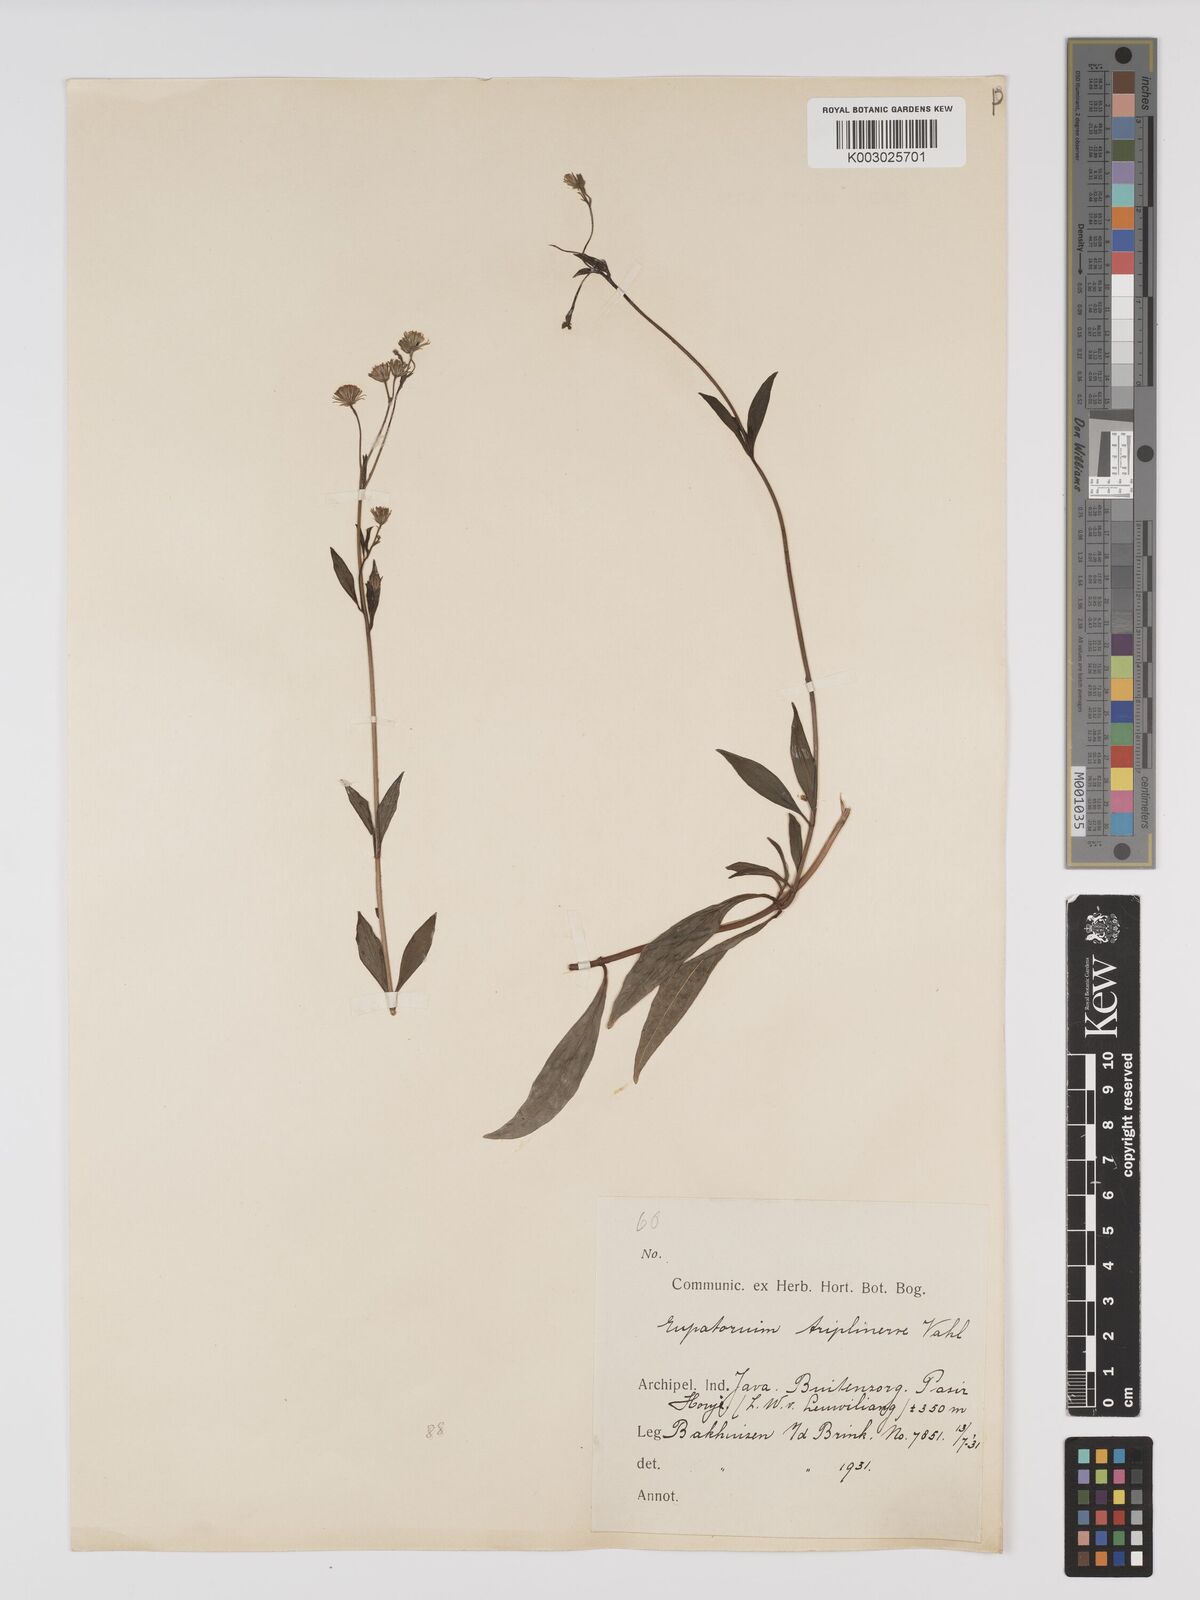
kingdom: Plantae
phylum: Tracheophyta
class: Magnoliopsida
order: Asterales
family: Asteraceae
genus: Ayapana
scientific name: Ayapana triplinervis
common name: Triplinerved eupatorium
